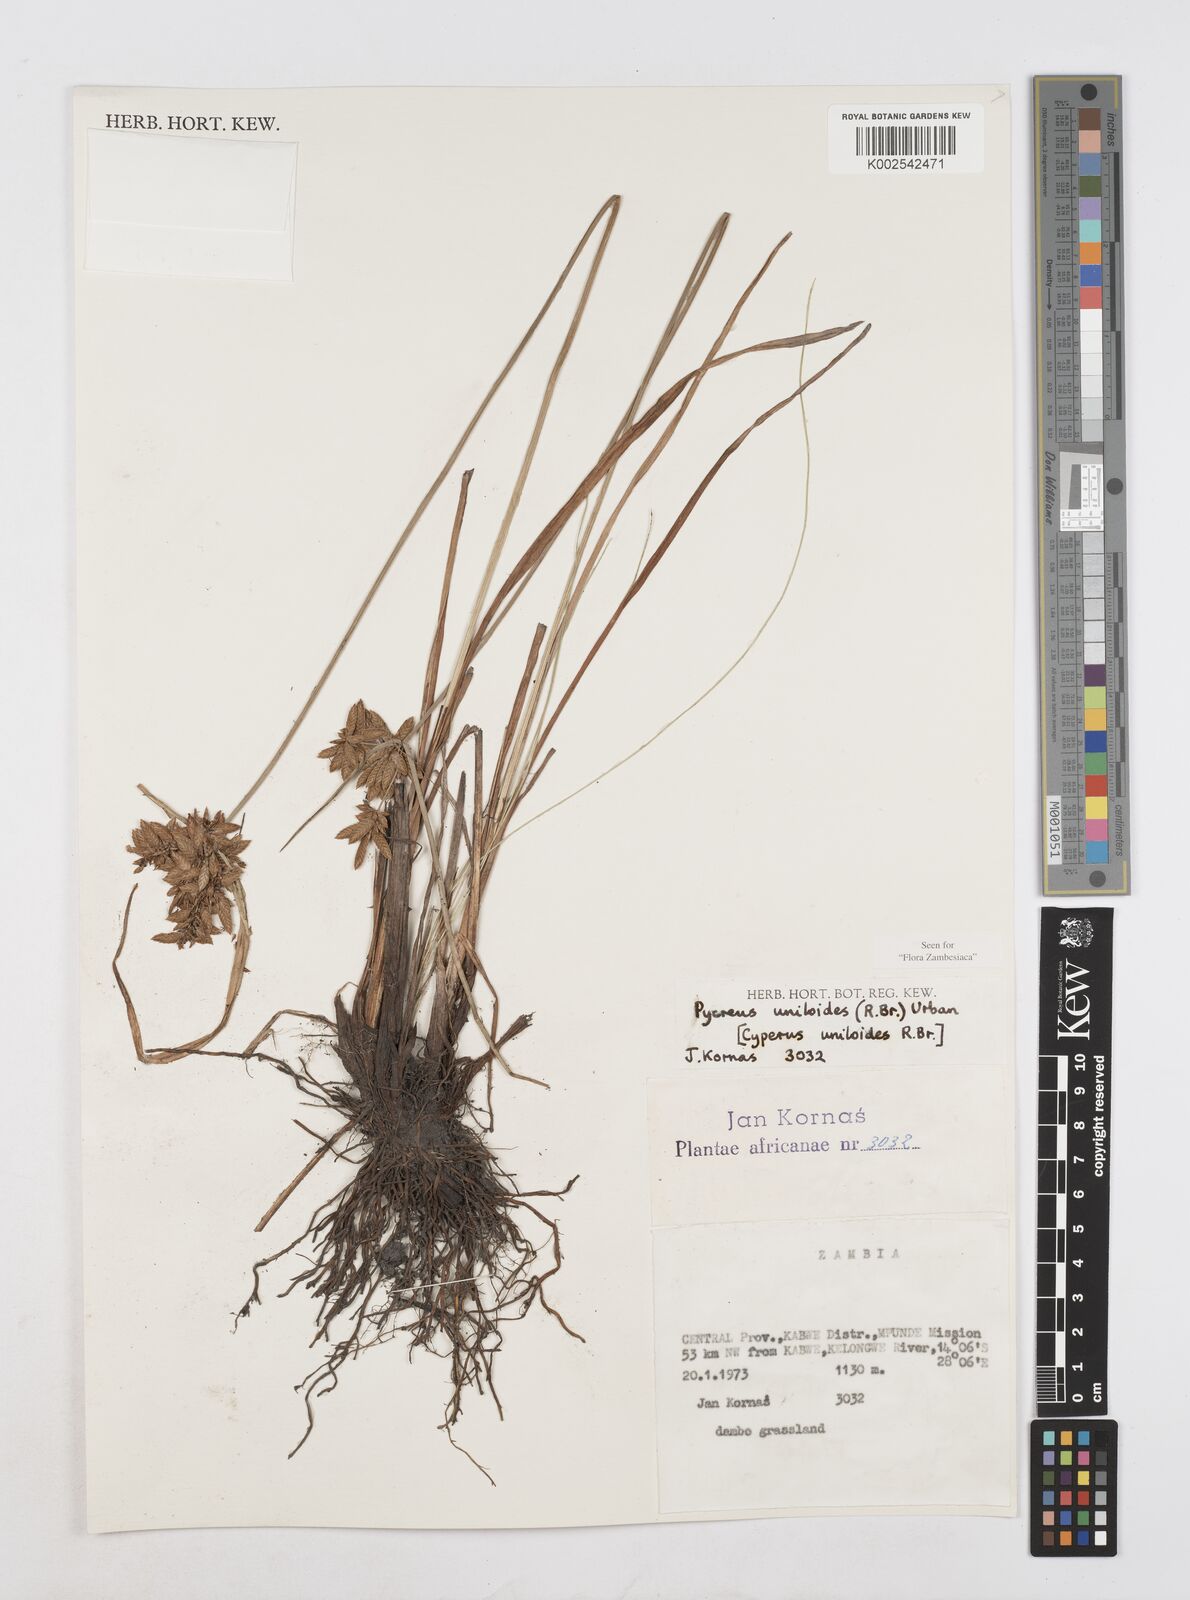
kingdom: Plantae
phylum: Tracheophyta
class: Liliopsida
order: Poales
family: Cyperaceae
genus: Cyperus
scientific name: Cyperus unioloides
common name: Uniola flatsedge
